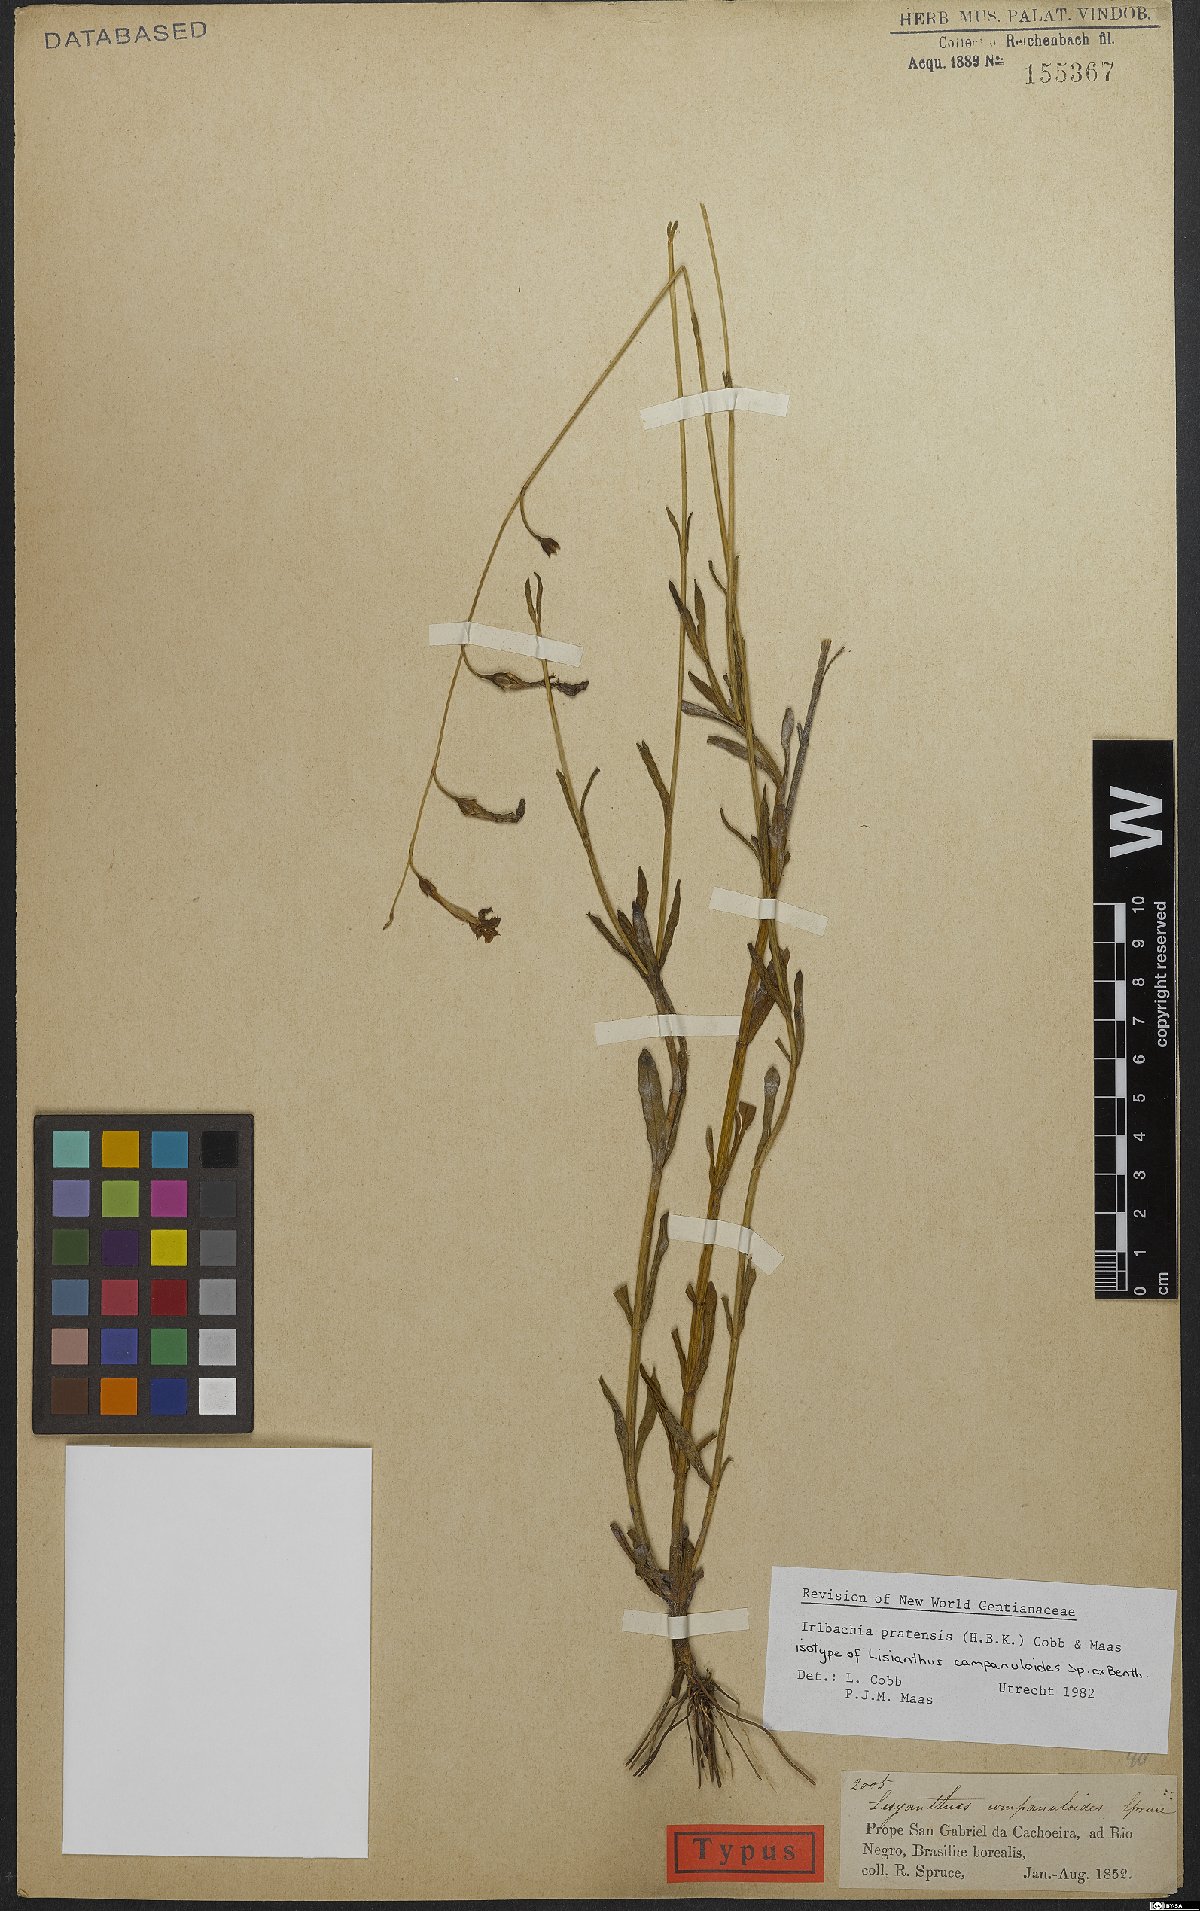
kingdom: Plantae
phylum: Tracheophyta
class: Magnoliopsida
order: Gentianales
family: Gentianaceae
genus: Irlbachia
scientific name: Irlbachia poeppigii
